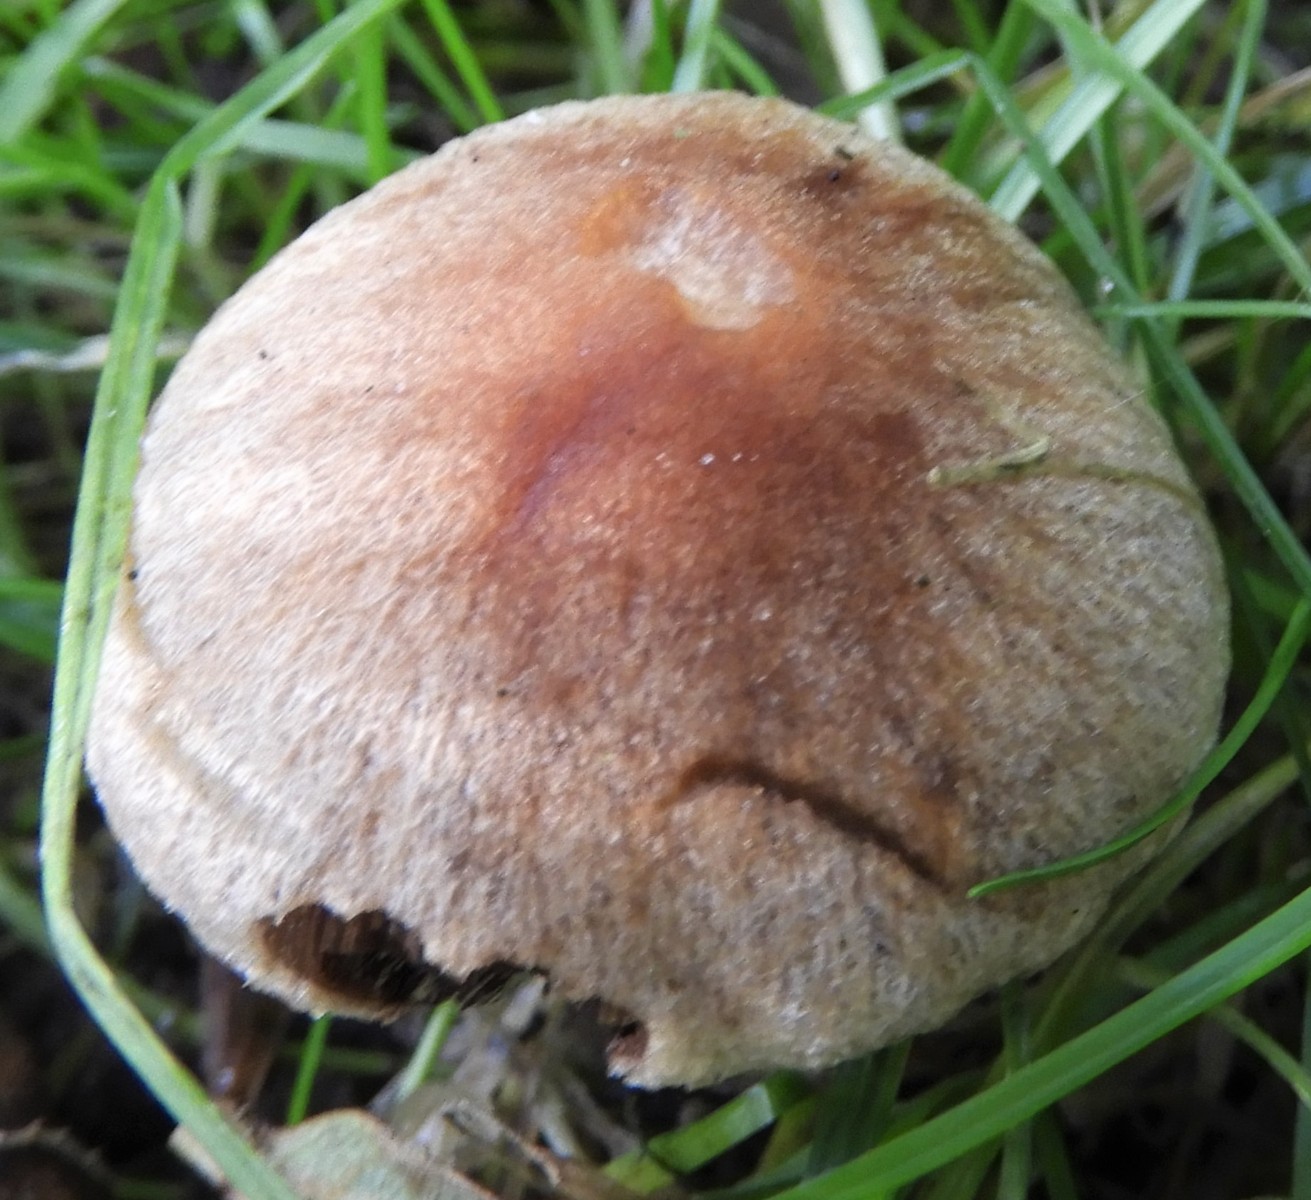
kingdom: Fungi
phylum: Basidiomycota
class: Agaricomycetes
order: Agaricales
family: Psathyrellaceae
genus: Lacrymaria
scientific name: Lacrymaria lacrymabunda
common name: grædende mørkhat
